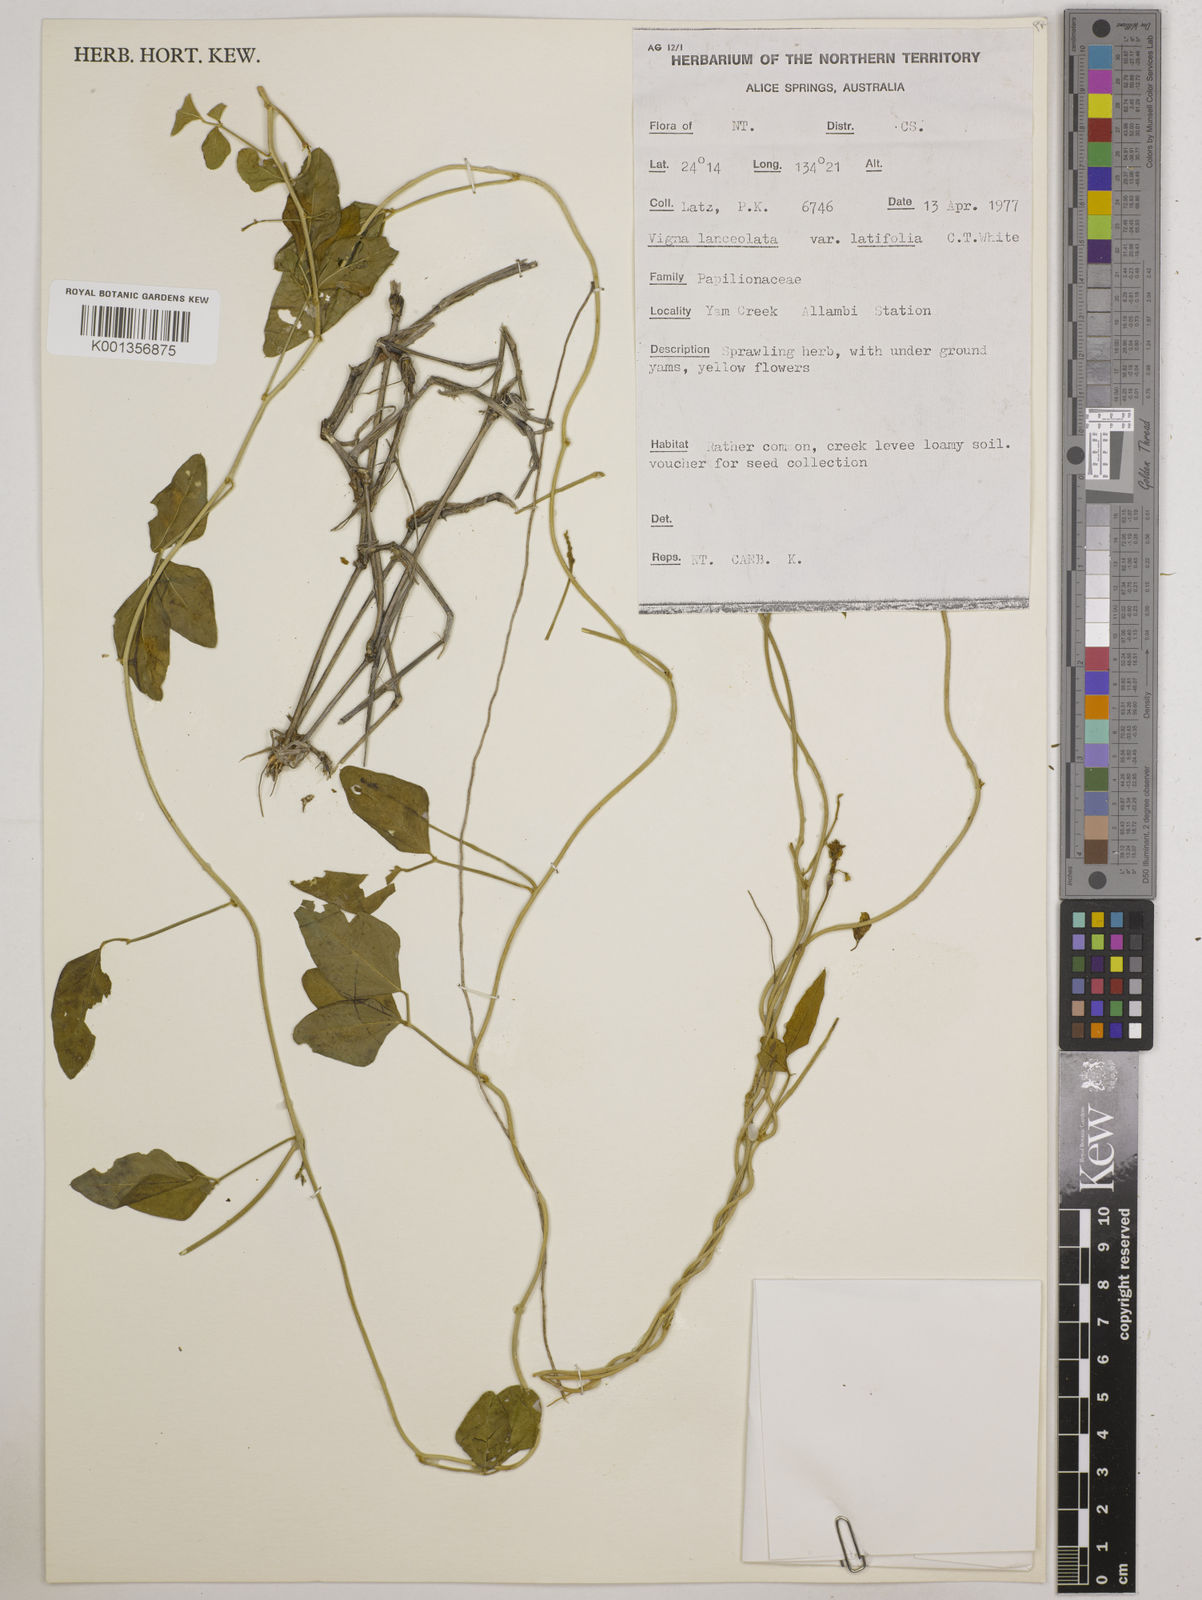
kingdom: Plantae
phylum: Tracheophyta
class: Magnoliopsida
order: Fabales
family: Fabaceae
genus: Vigna
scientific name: Vigna lanceolata
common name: Maloga-bean
